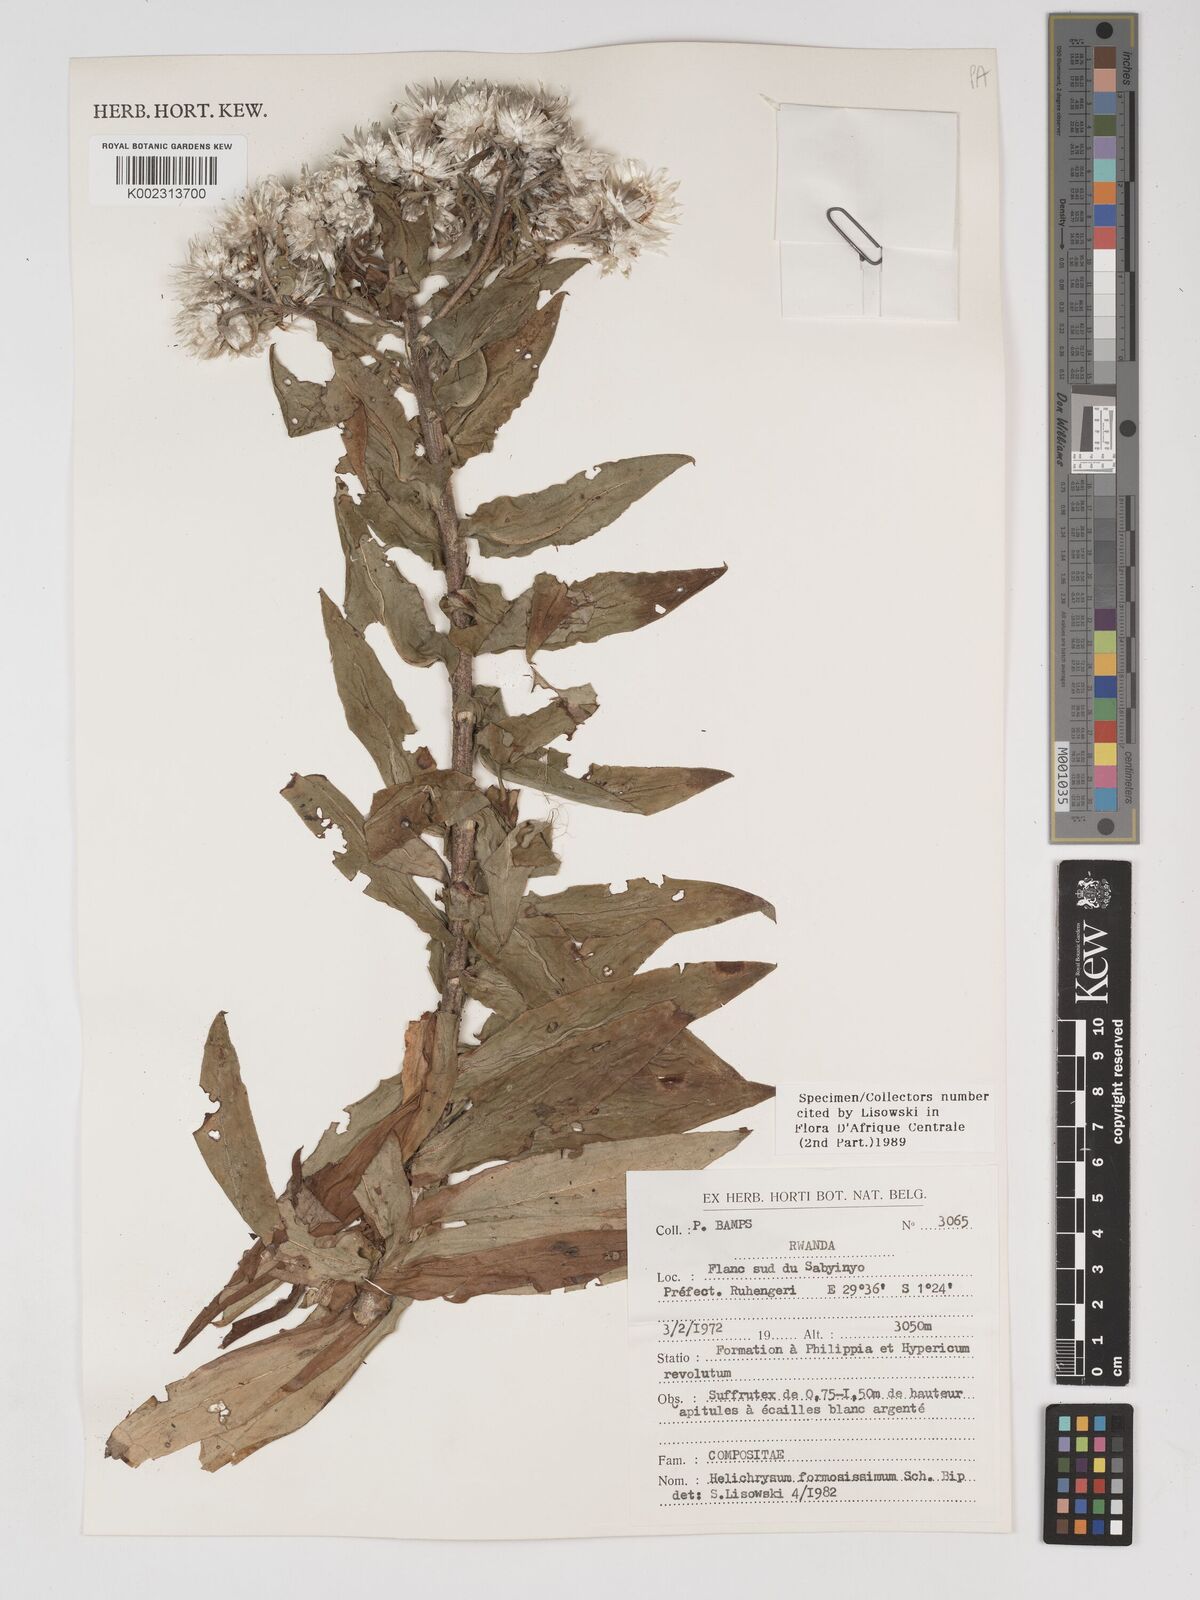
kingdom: Plantae
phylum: Tracheophyta
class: Magnoliopsida
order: Asterales
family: Asteraceae
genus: Helichrysum
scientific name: Helichrysum formosissimum
